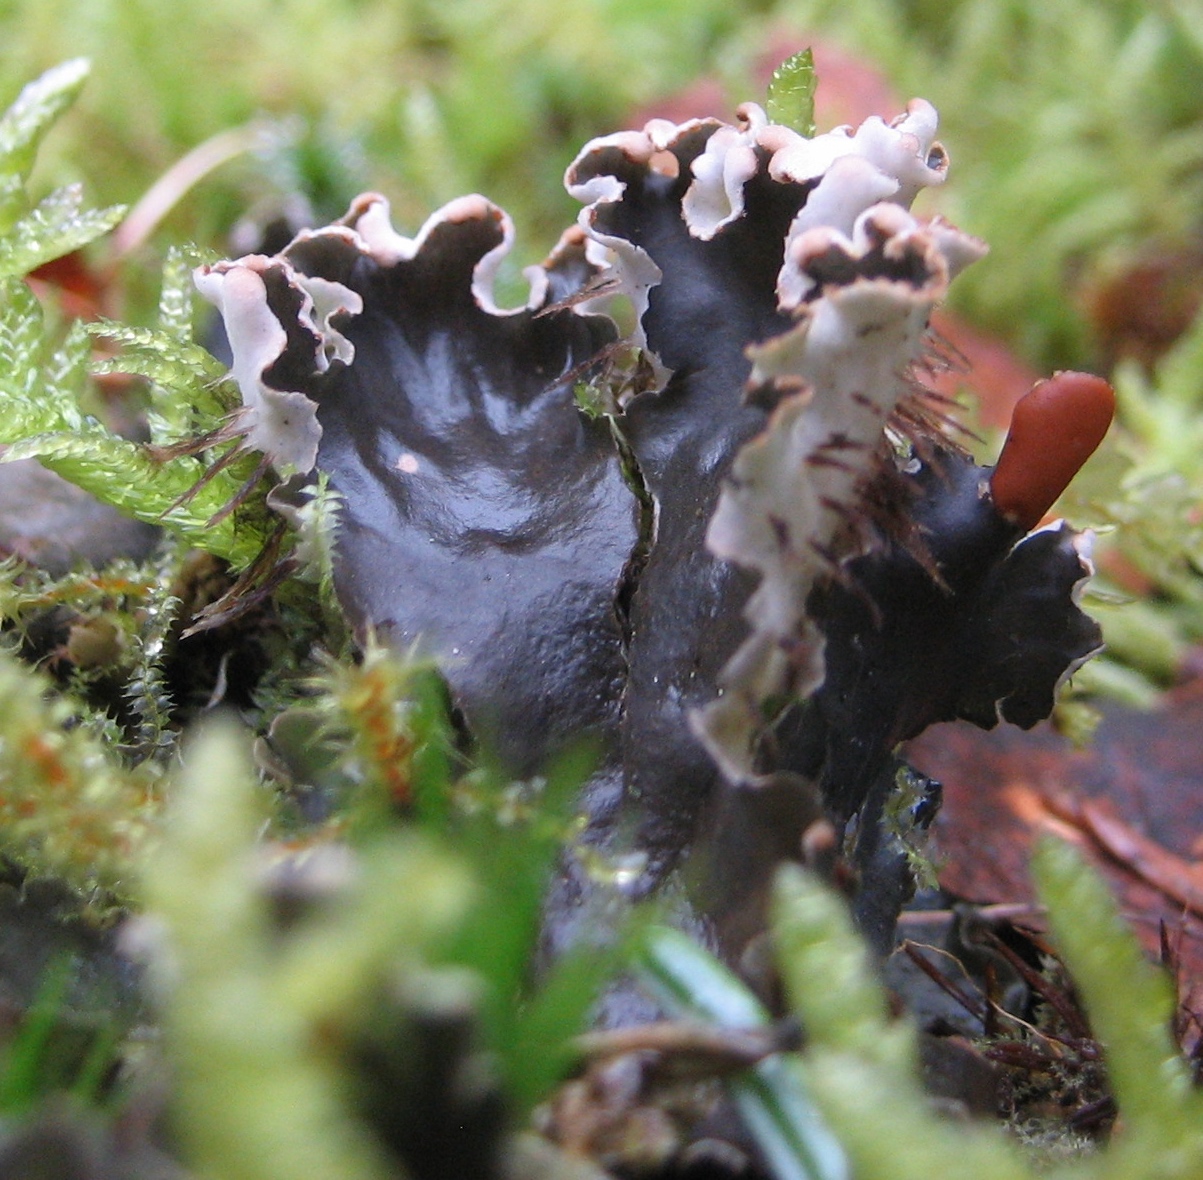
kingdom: Fungi
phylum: Ascomycota
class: Lecanoromycetes
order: Peltigerales
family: Peltigeraceae
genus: Peltigera
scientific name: Peltigera hymenina
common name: hinde-skjoldlav
